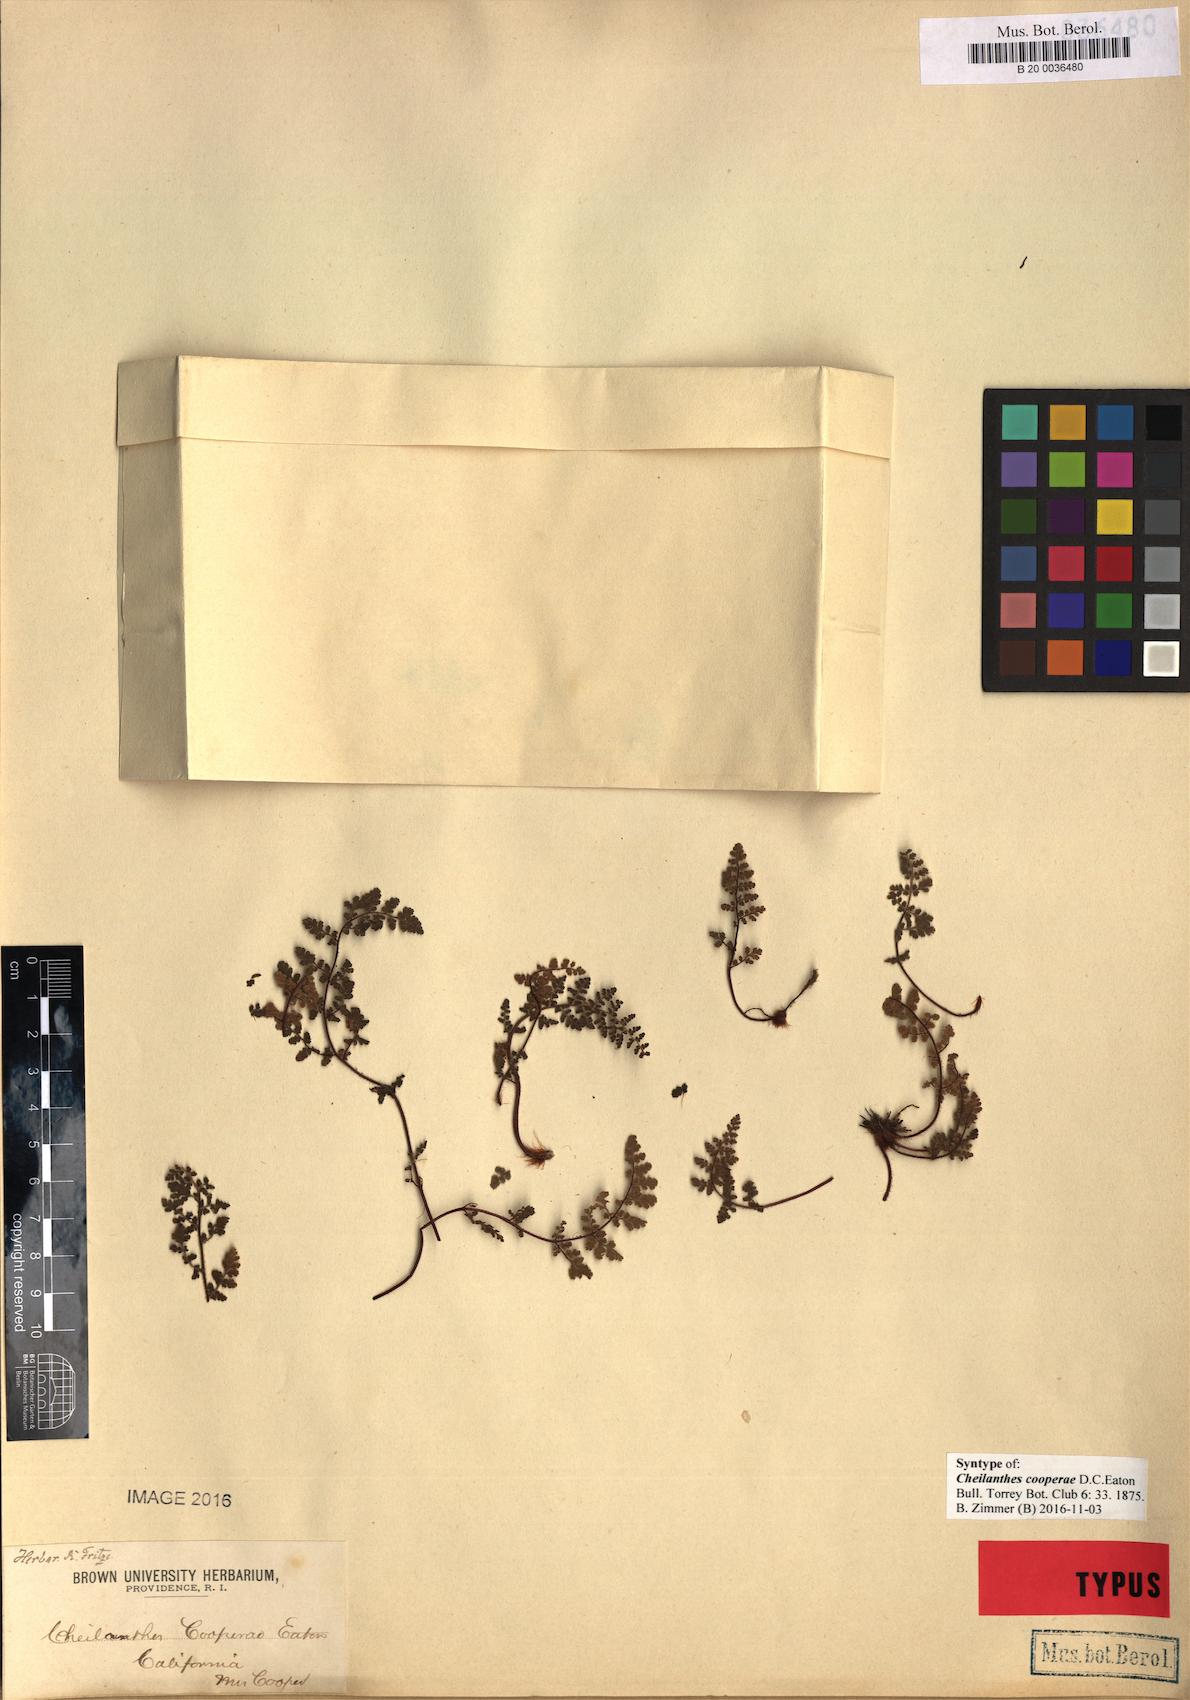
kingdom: Plantae
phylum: Tracheophyta
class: Polypodiopsida
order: Polypodiales
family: Pteridaceae
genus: Myriopteris
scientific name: Myriopteris cooperae
